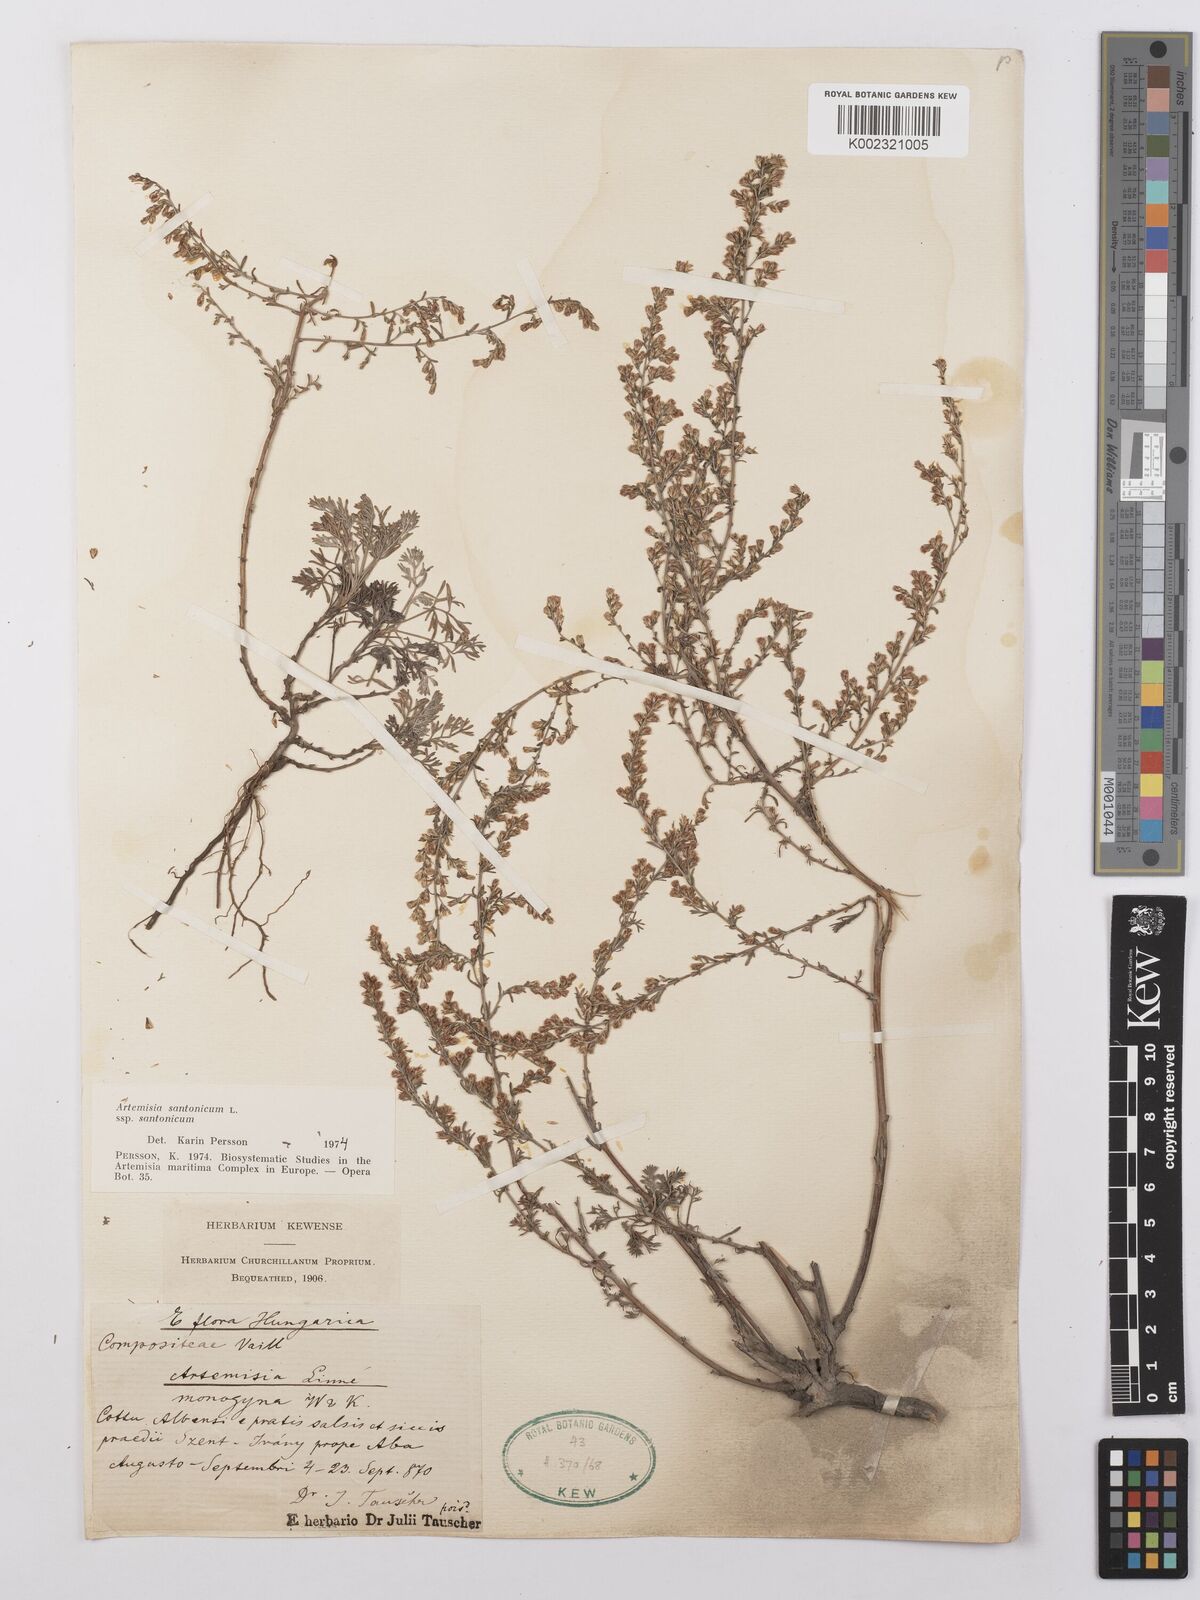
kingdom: Plantae
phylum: Tracheophyta
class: Magnoliopsida
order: Asterales
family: Asteraceae
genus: Artemisia
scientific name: Artemisia santolina
